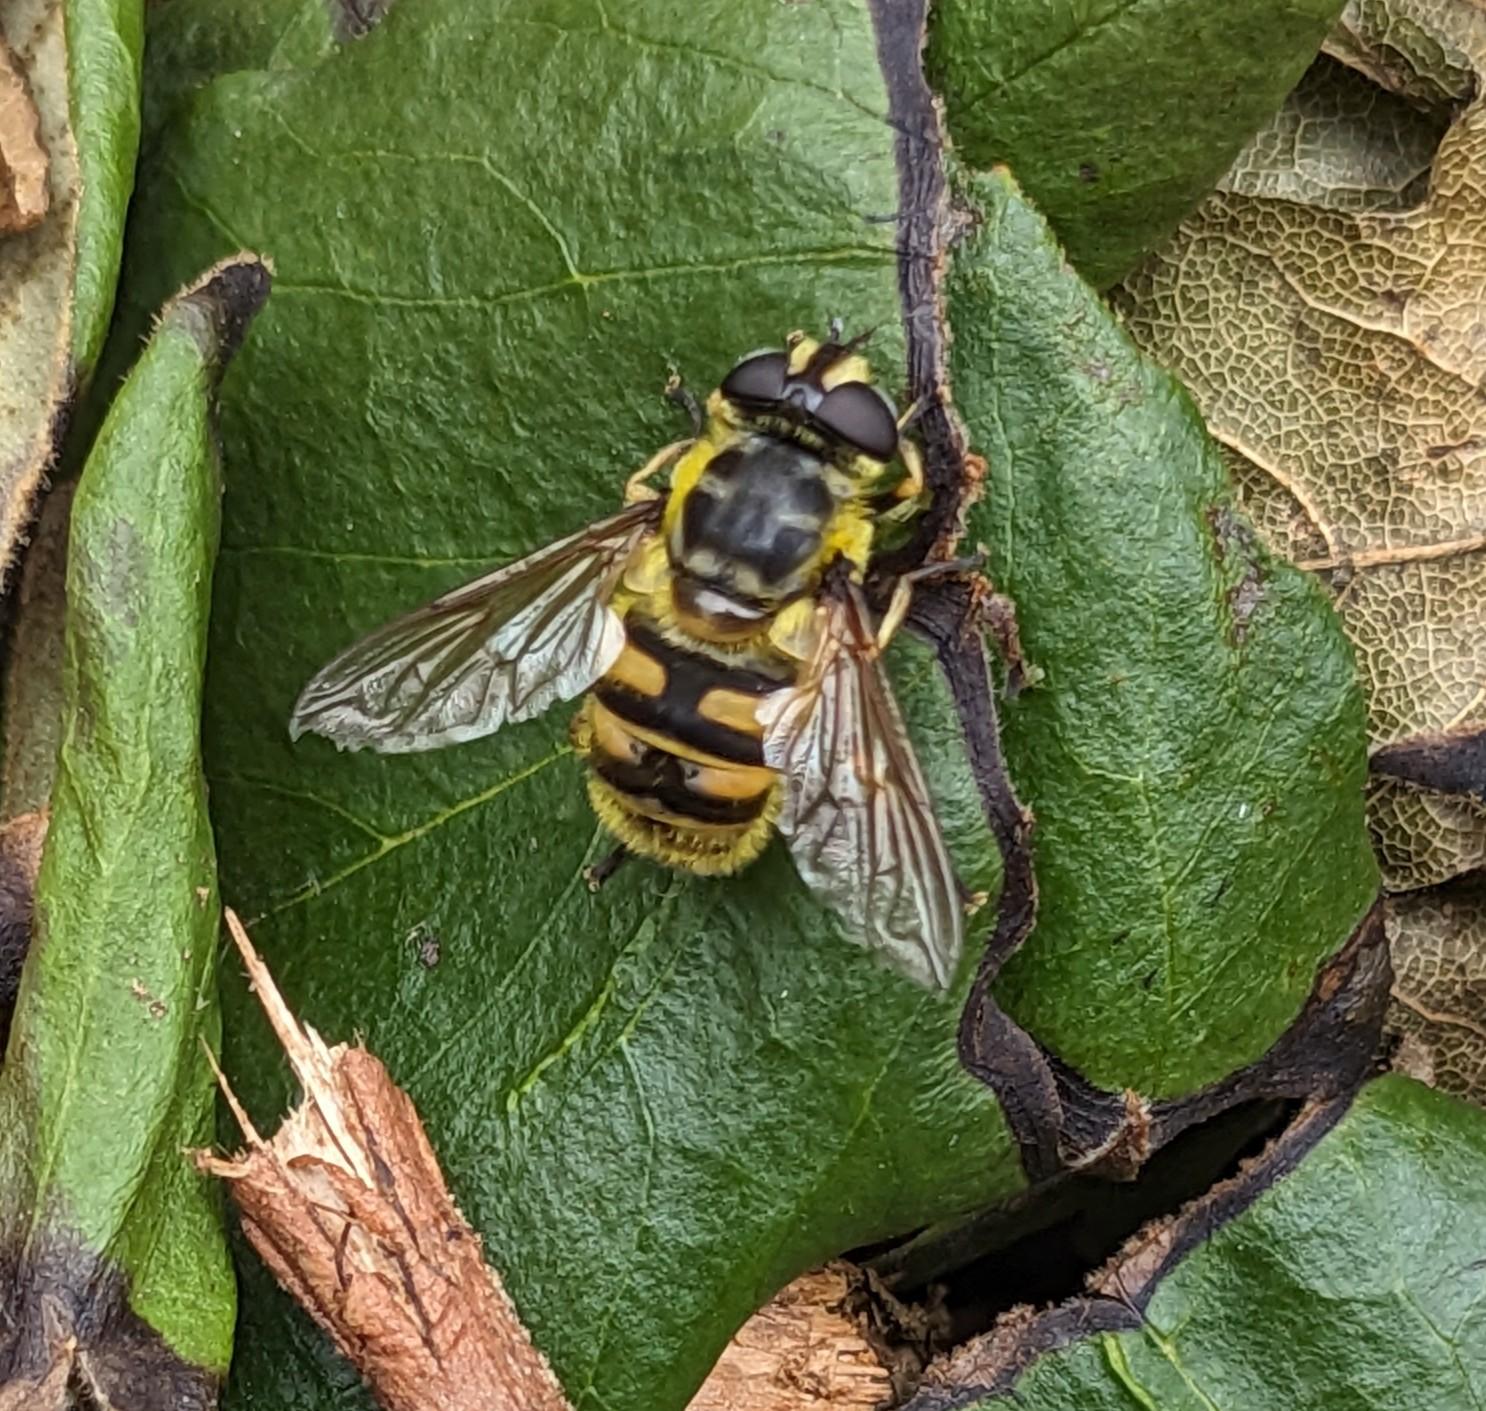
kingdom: Animalia
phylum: Arthropoda
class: Insecta
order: Diptera
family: Syrphidae
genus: Myathropa
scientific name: Myathropa florea
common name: Dødningehoved-svirreflue
